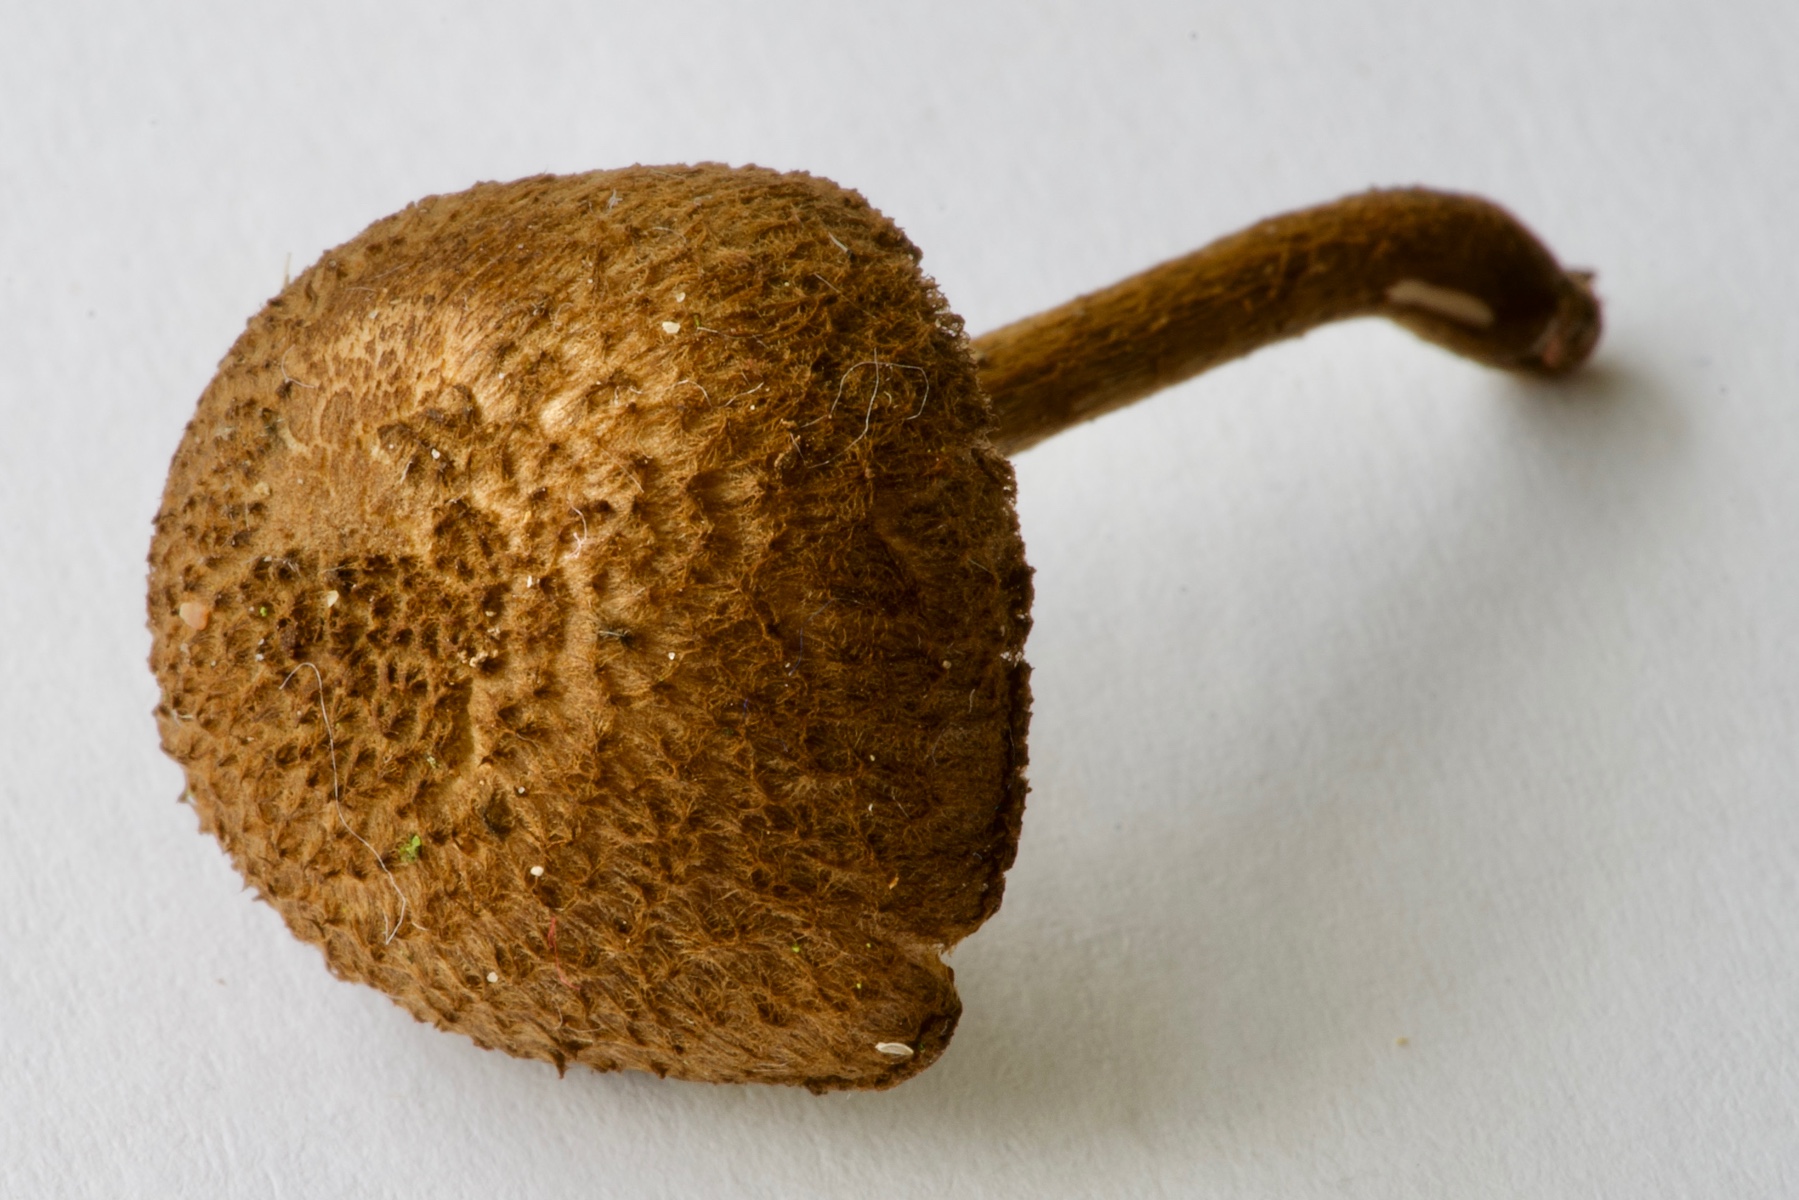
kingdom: Fungi
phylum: Basidiomycota
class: Agaricomycetes
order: Agaricales
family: Inocybaceae
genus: Inocybe
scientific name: Inocybe lanuginosa
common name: uldskællet trævlhat
